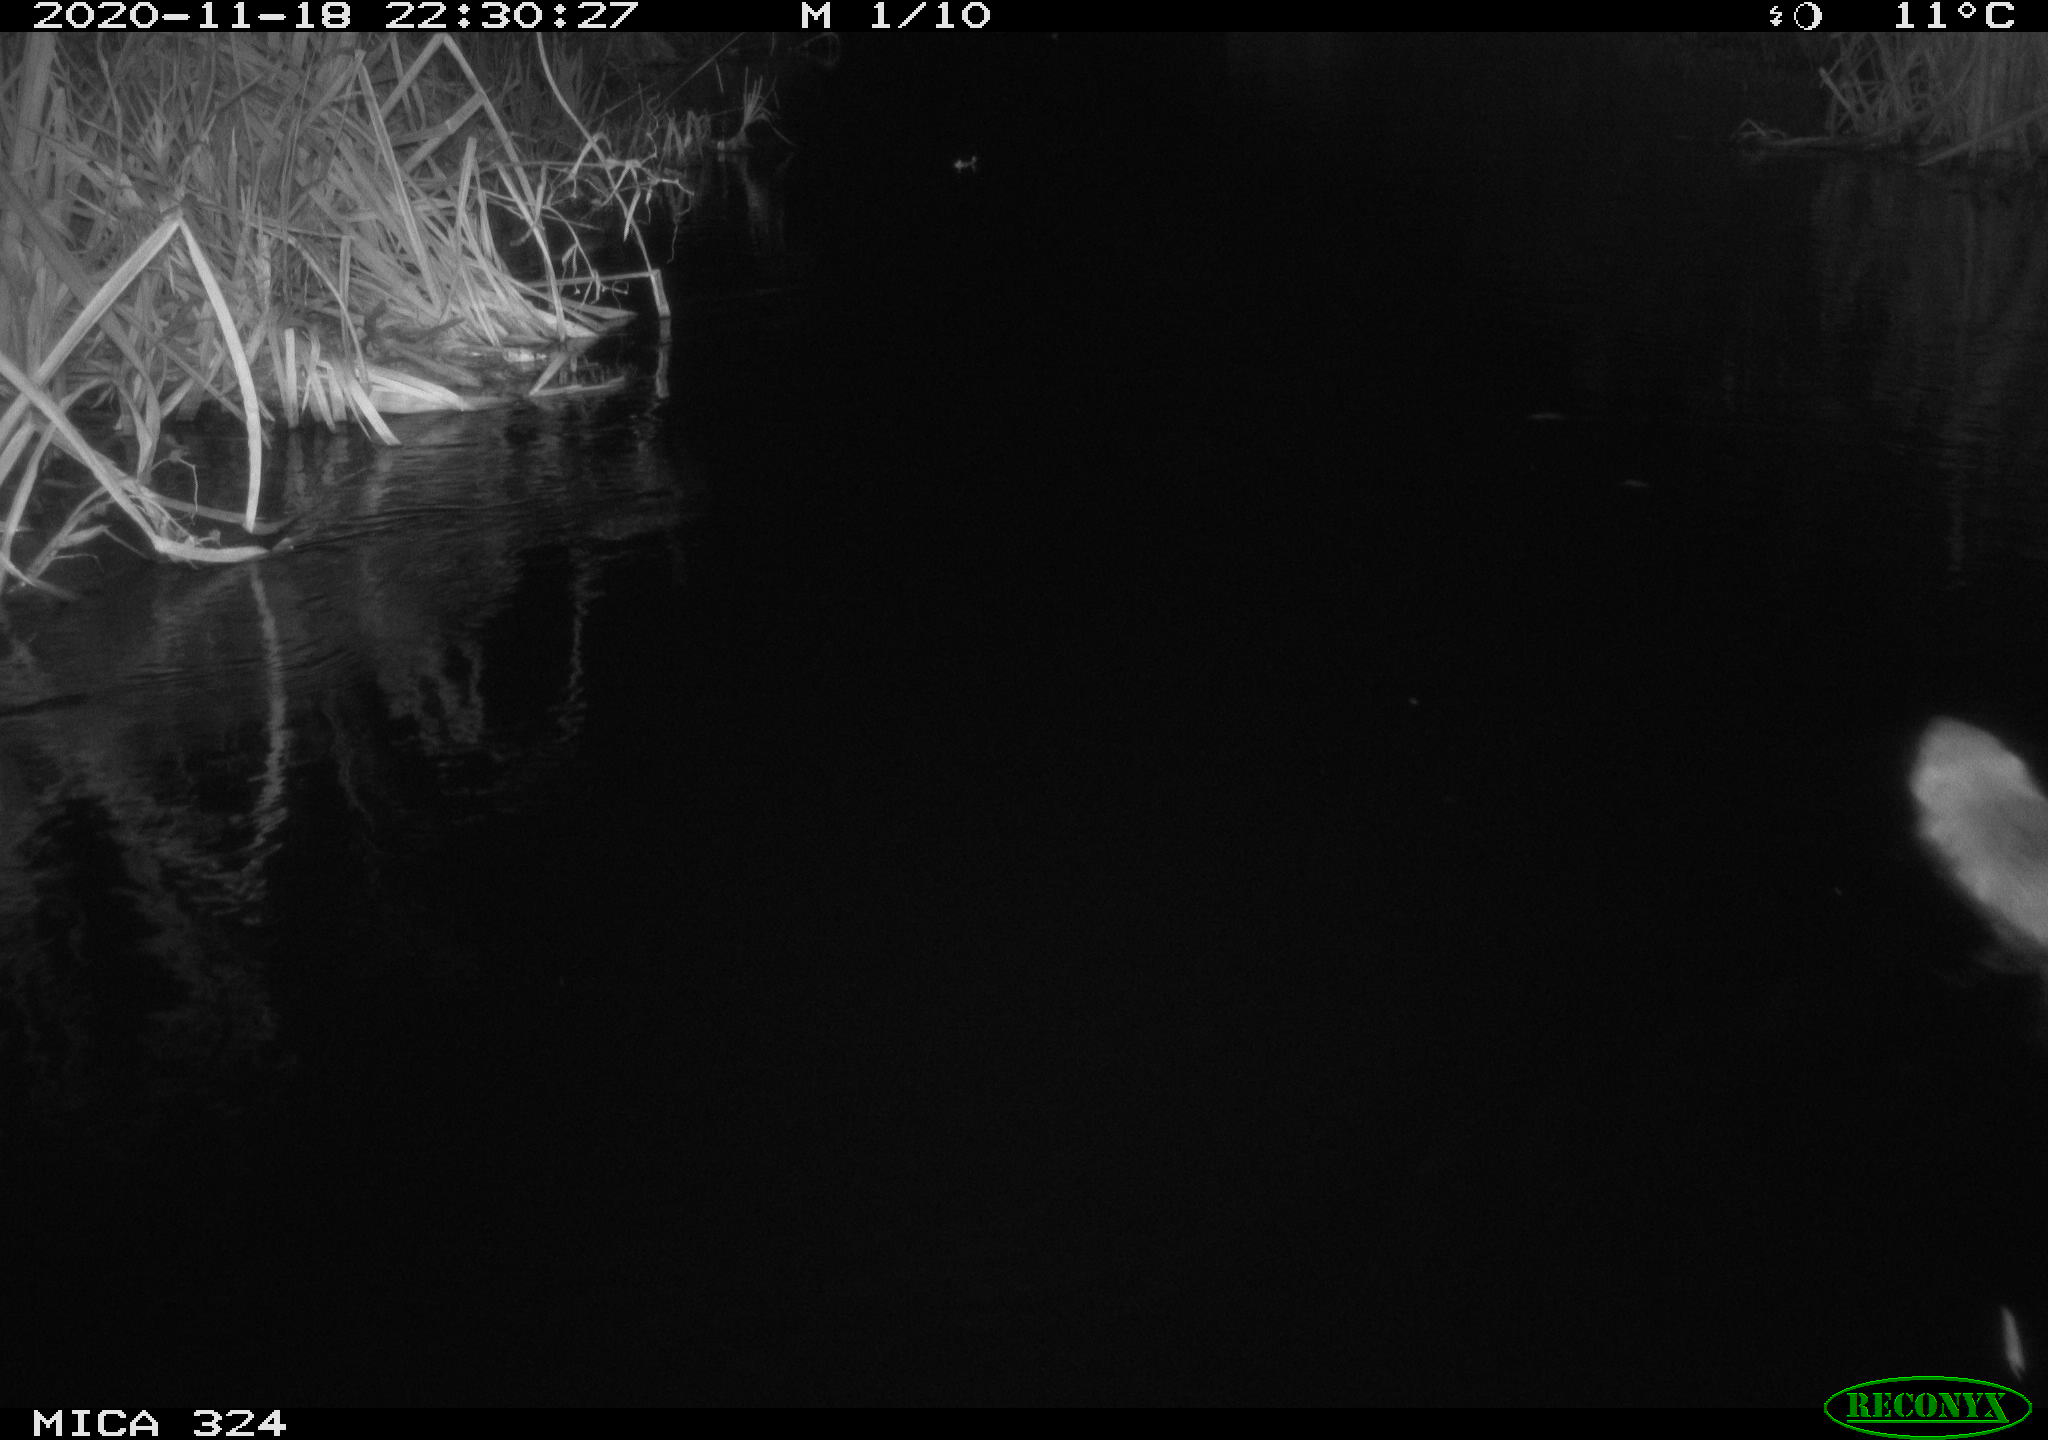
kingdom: Animalia
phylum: Chordata
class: Mammalia
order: Rodentia
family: Myocastoridae
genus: Myocastor
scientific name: Myocastor coypus
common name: Coypu
